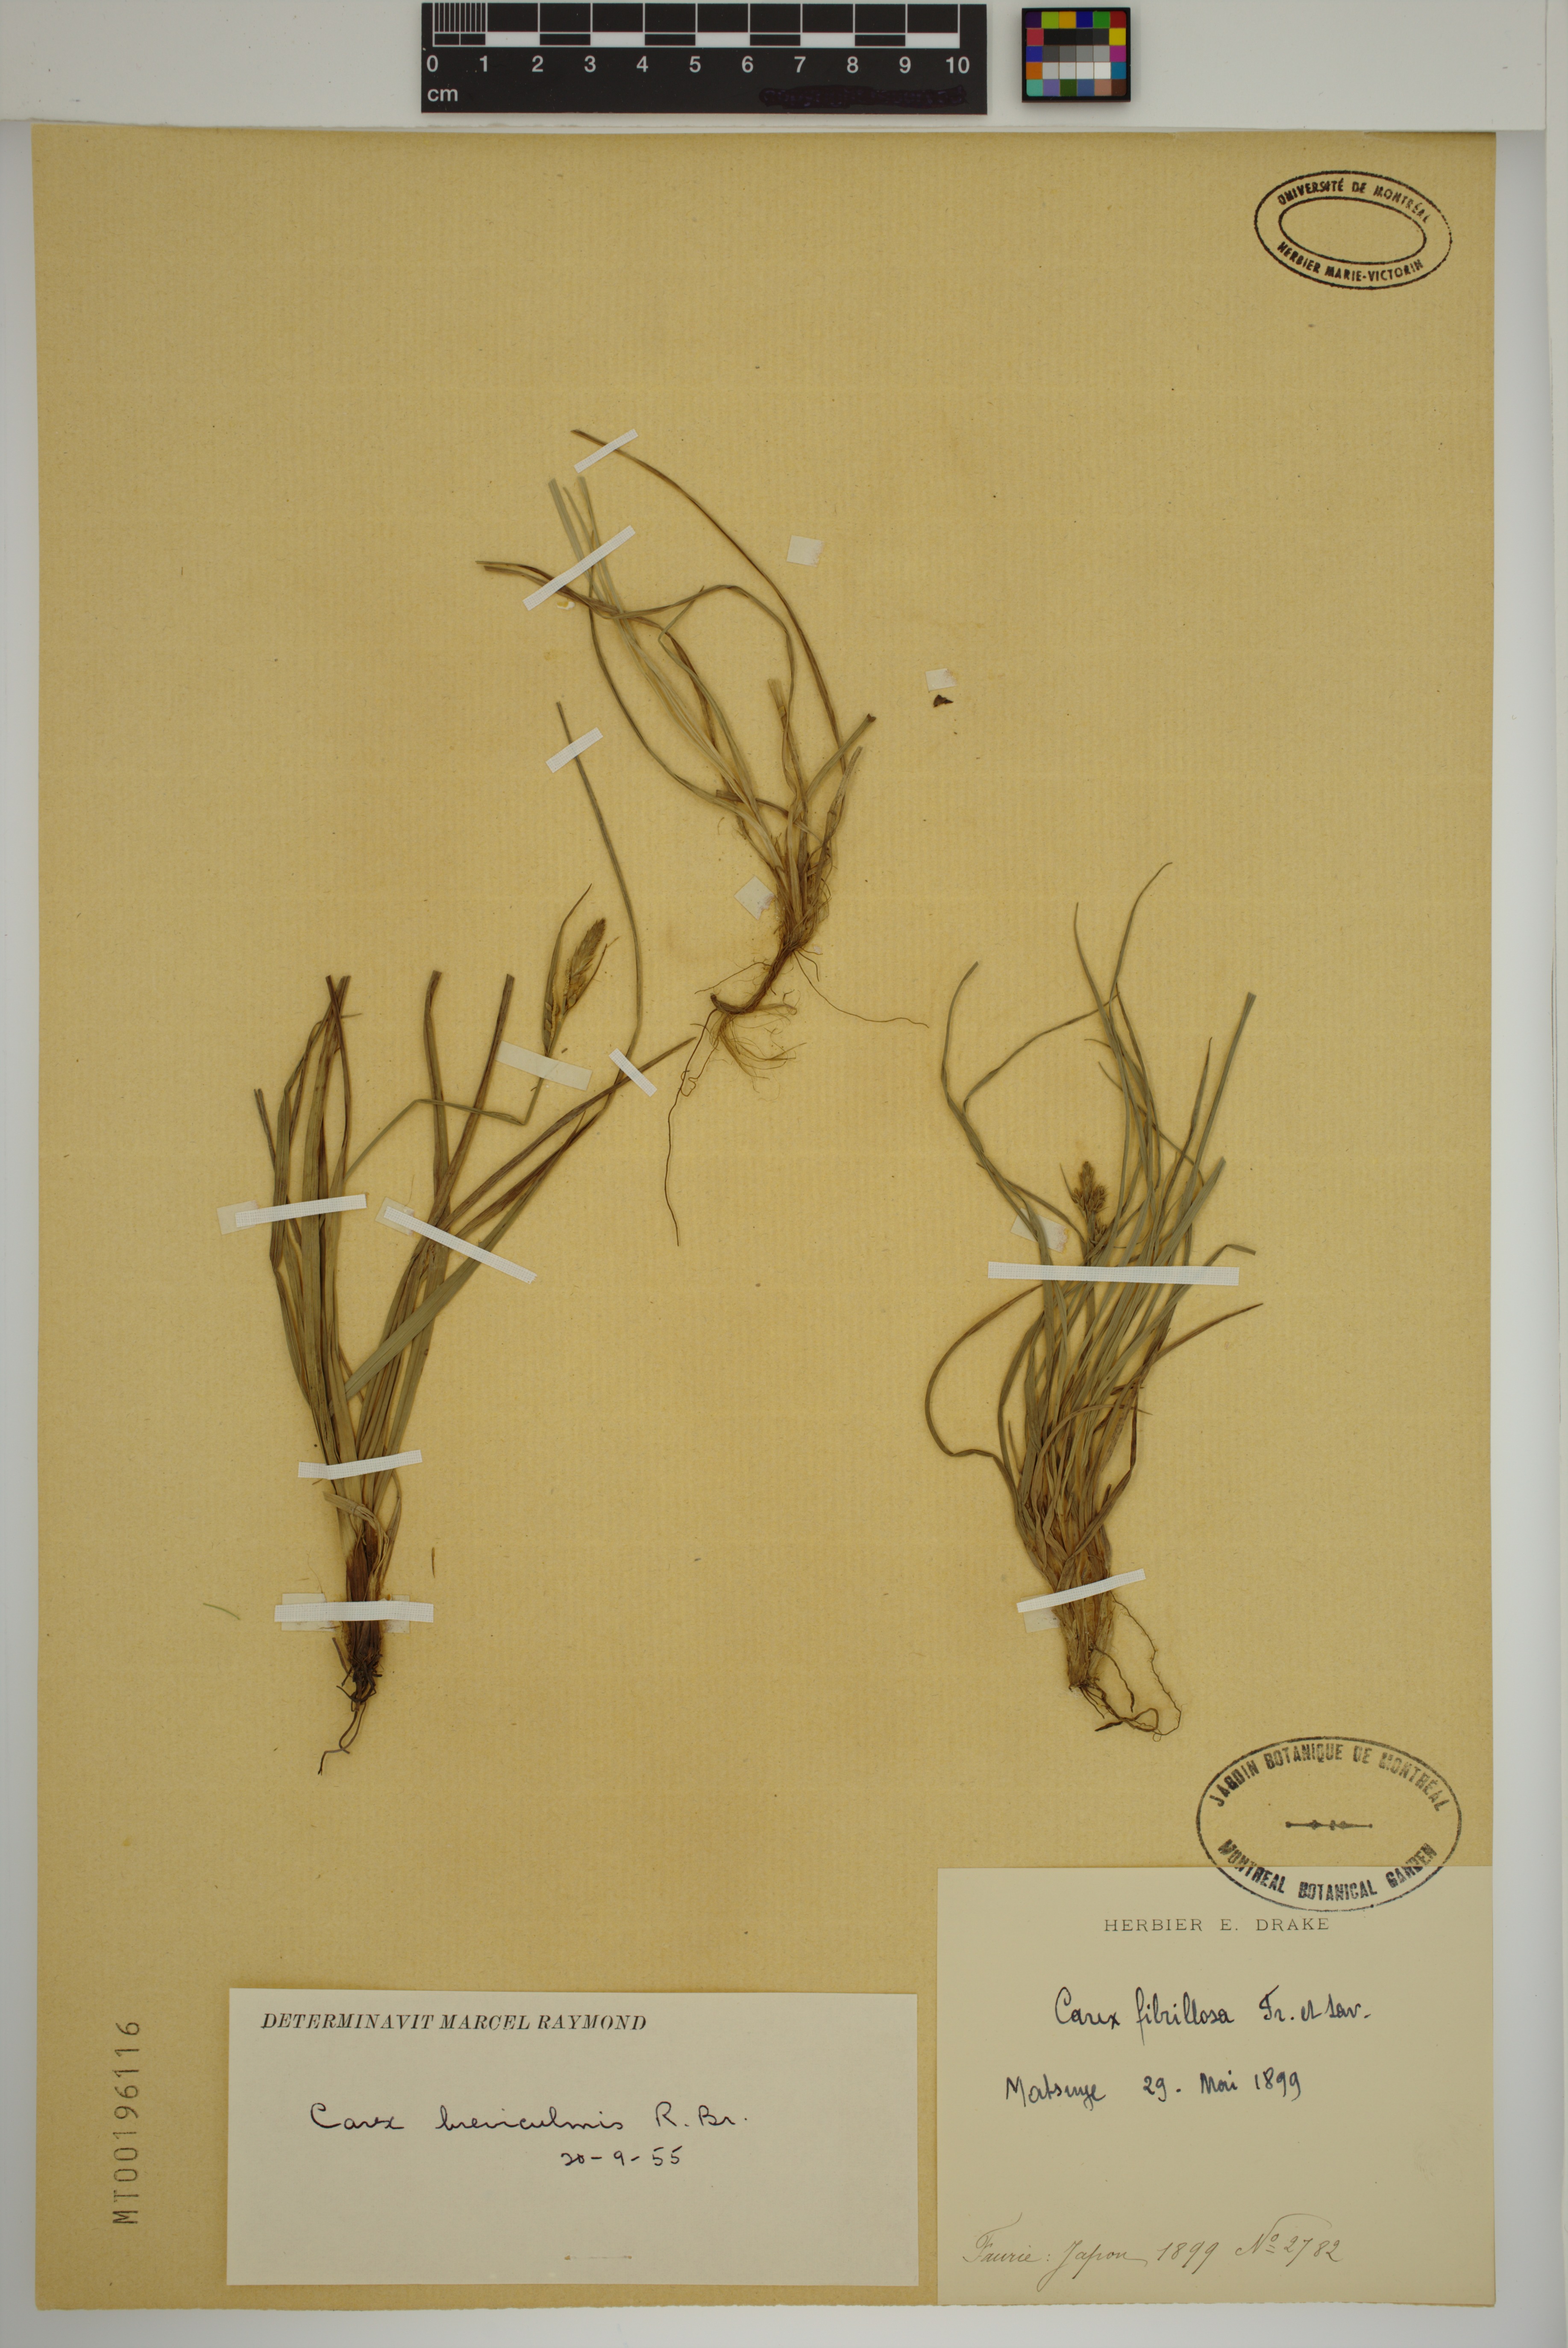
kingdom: Plantae
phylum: Tracheophyta
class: Liliopsida
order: Poales
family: Cyperaceae
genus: Carex
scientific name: Carex breviculmis
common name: Asian shortstem sedge
